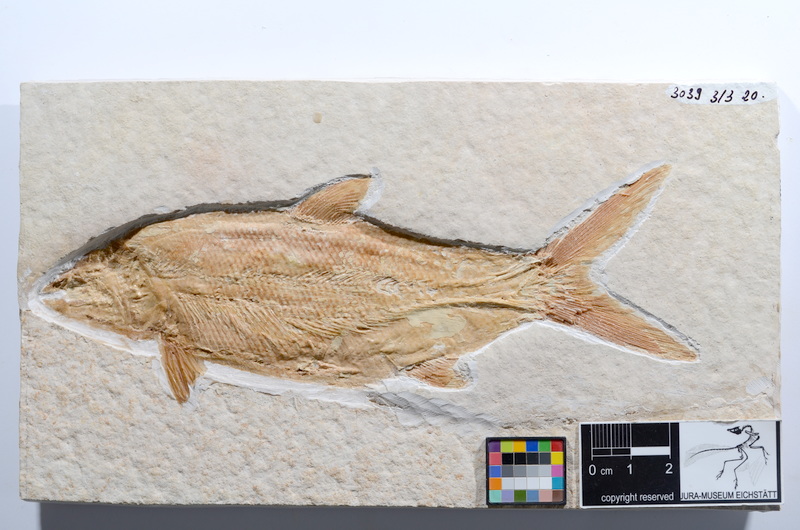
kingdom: Animalia
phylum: Chordata
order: Amiiformes
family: Caturidae
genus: Caturus
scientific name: Caturus furcatus
